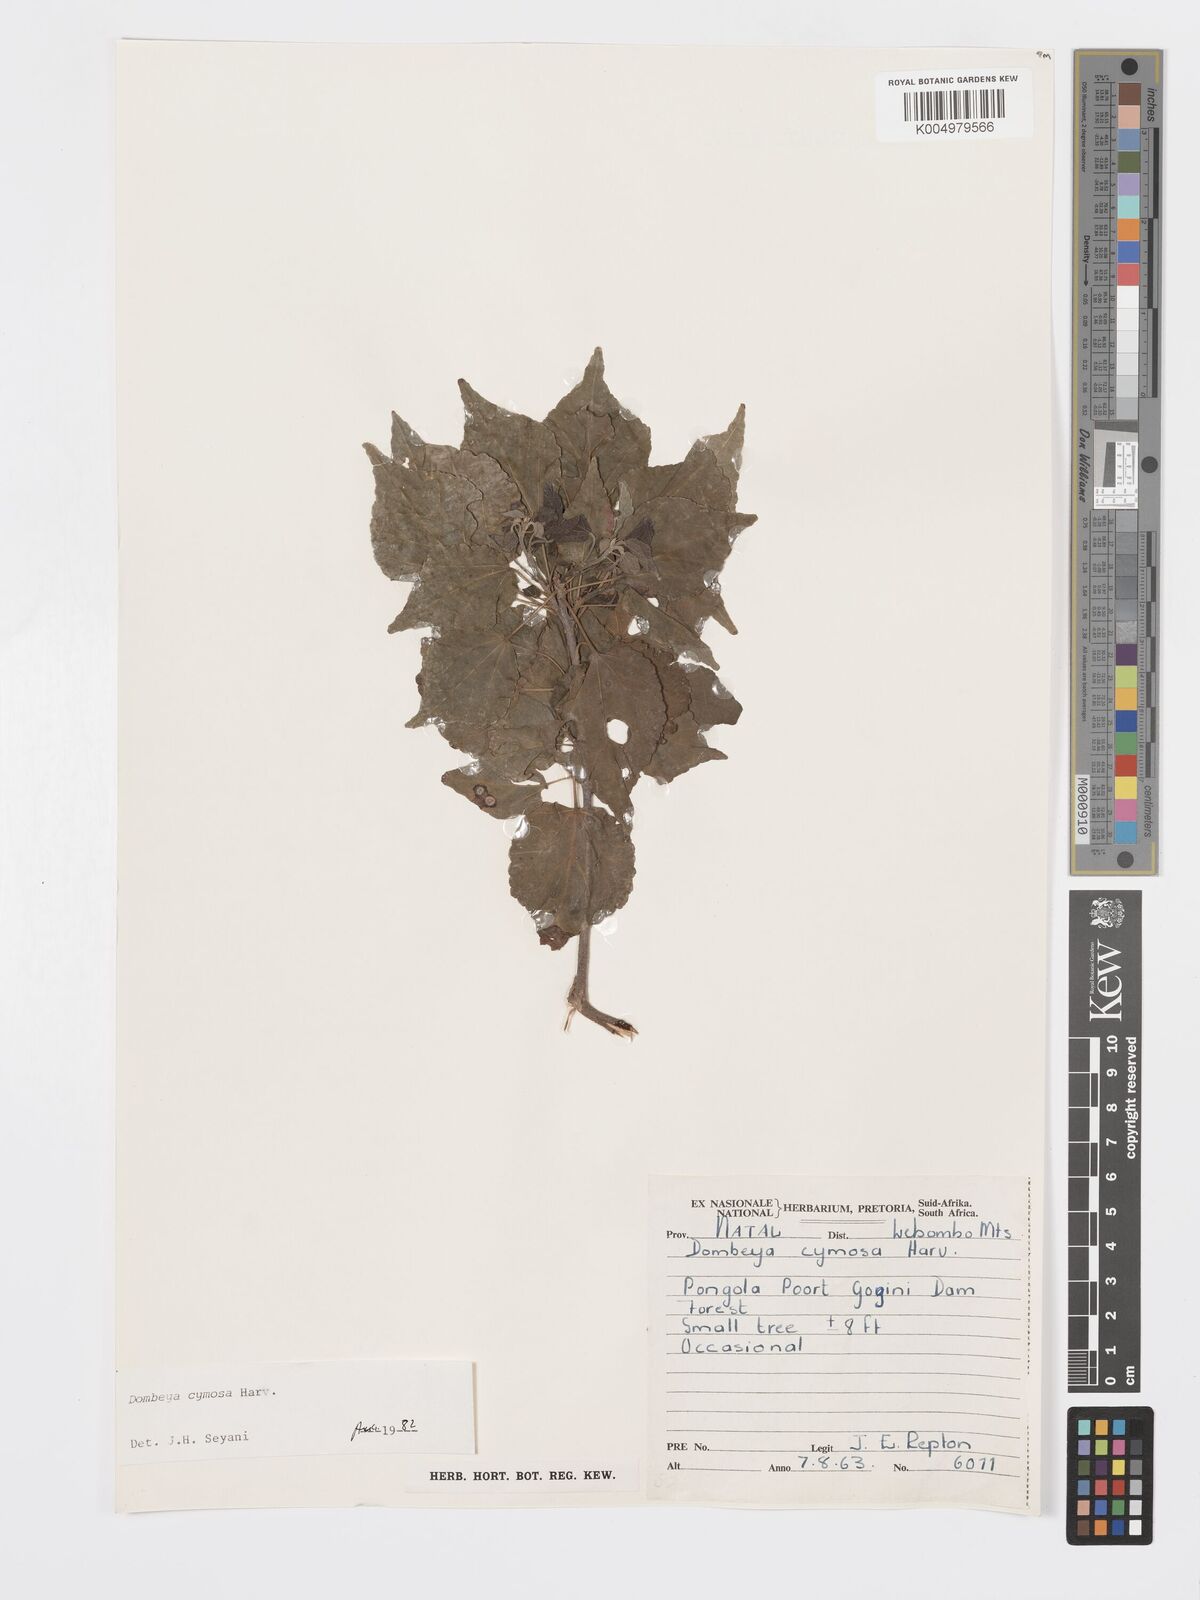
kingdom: Plantae
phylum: Tracheophyta
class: Magnoliopsida
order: Malvales
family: Malvaceae
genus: Dombeya
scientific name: Dombeya cymosa
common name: Hairless dombeya
